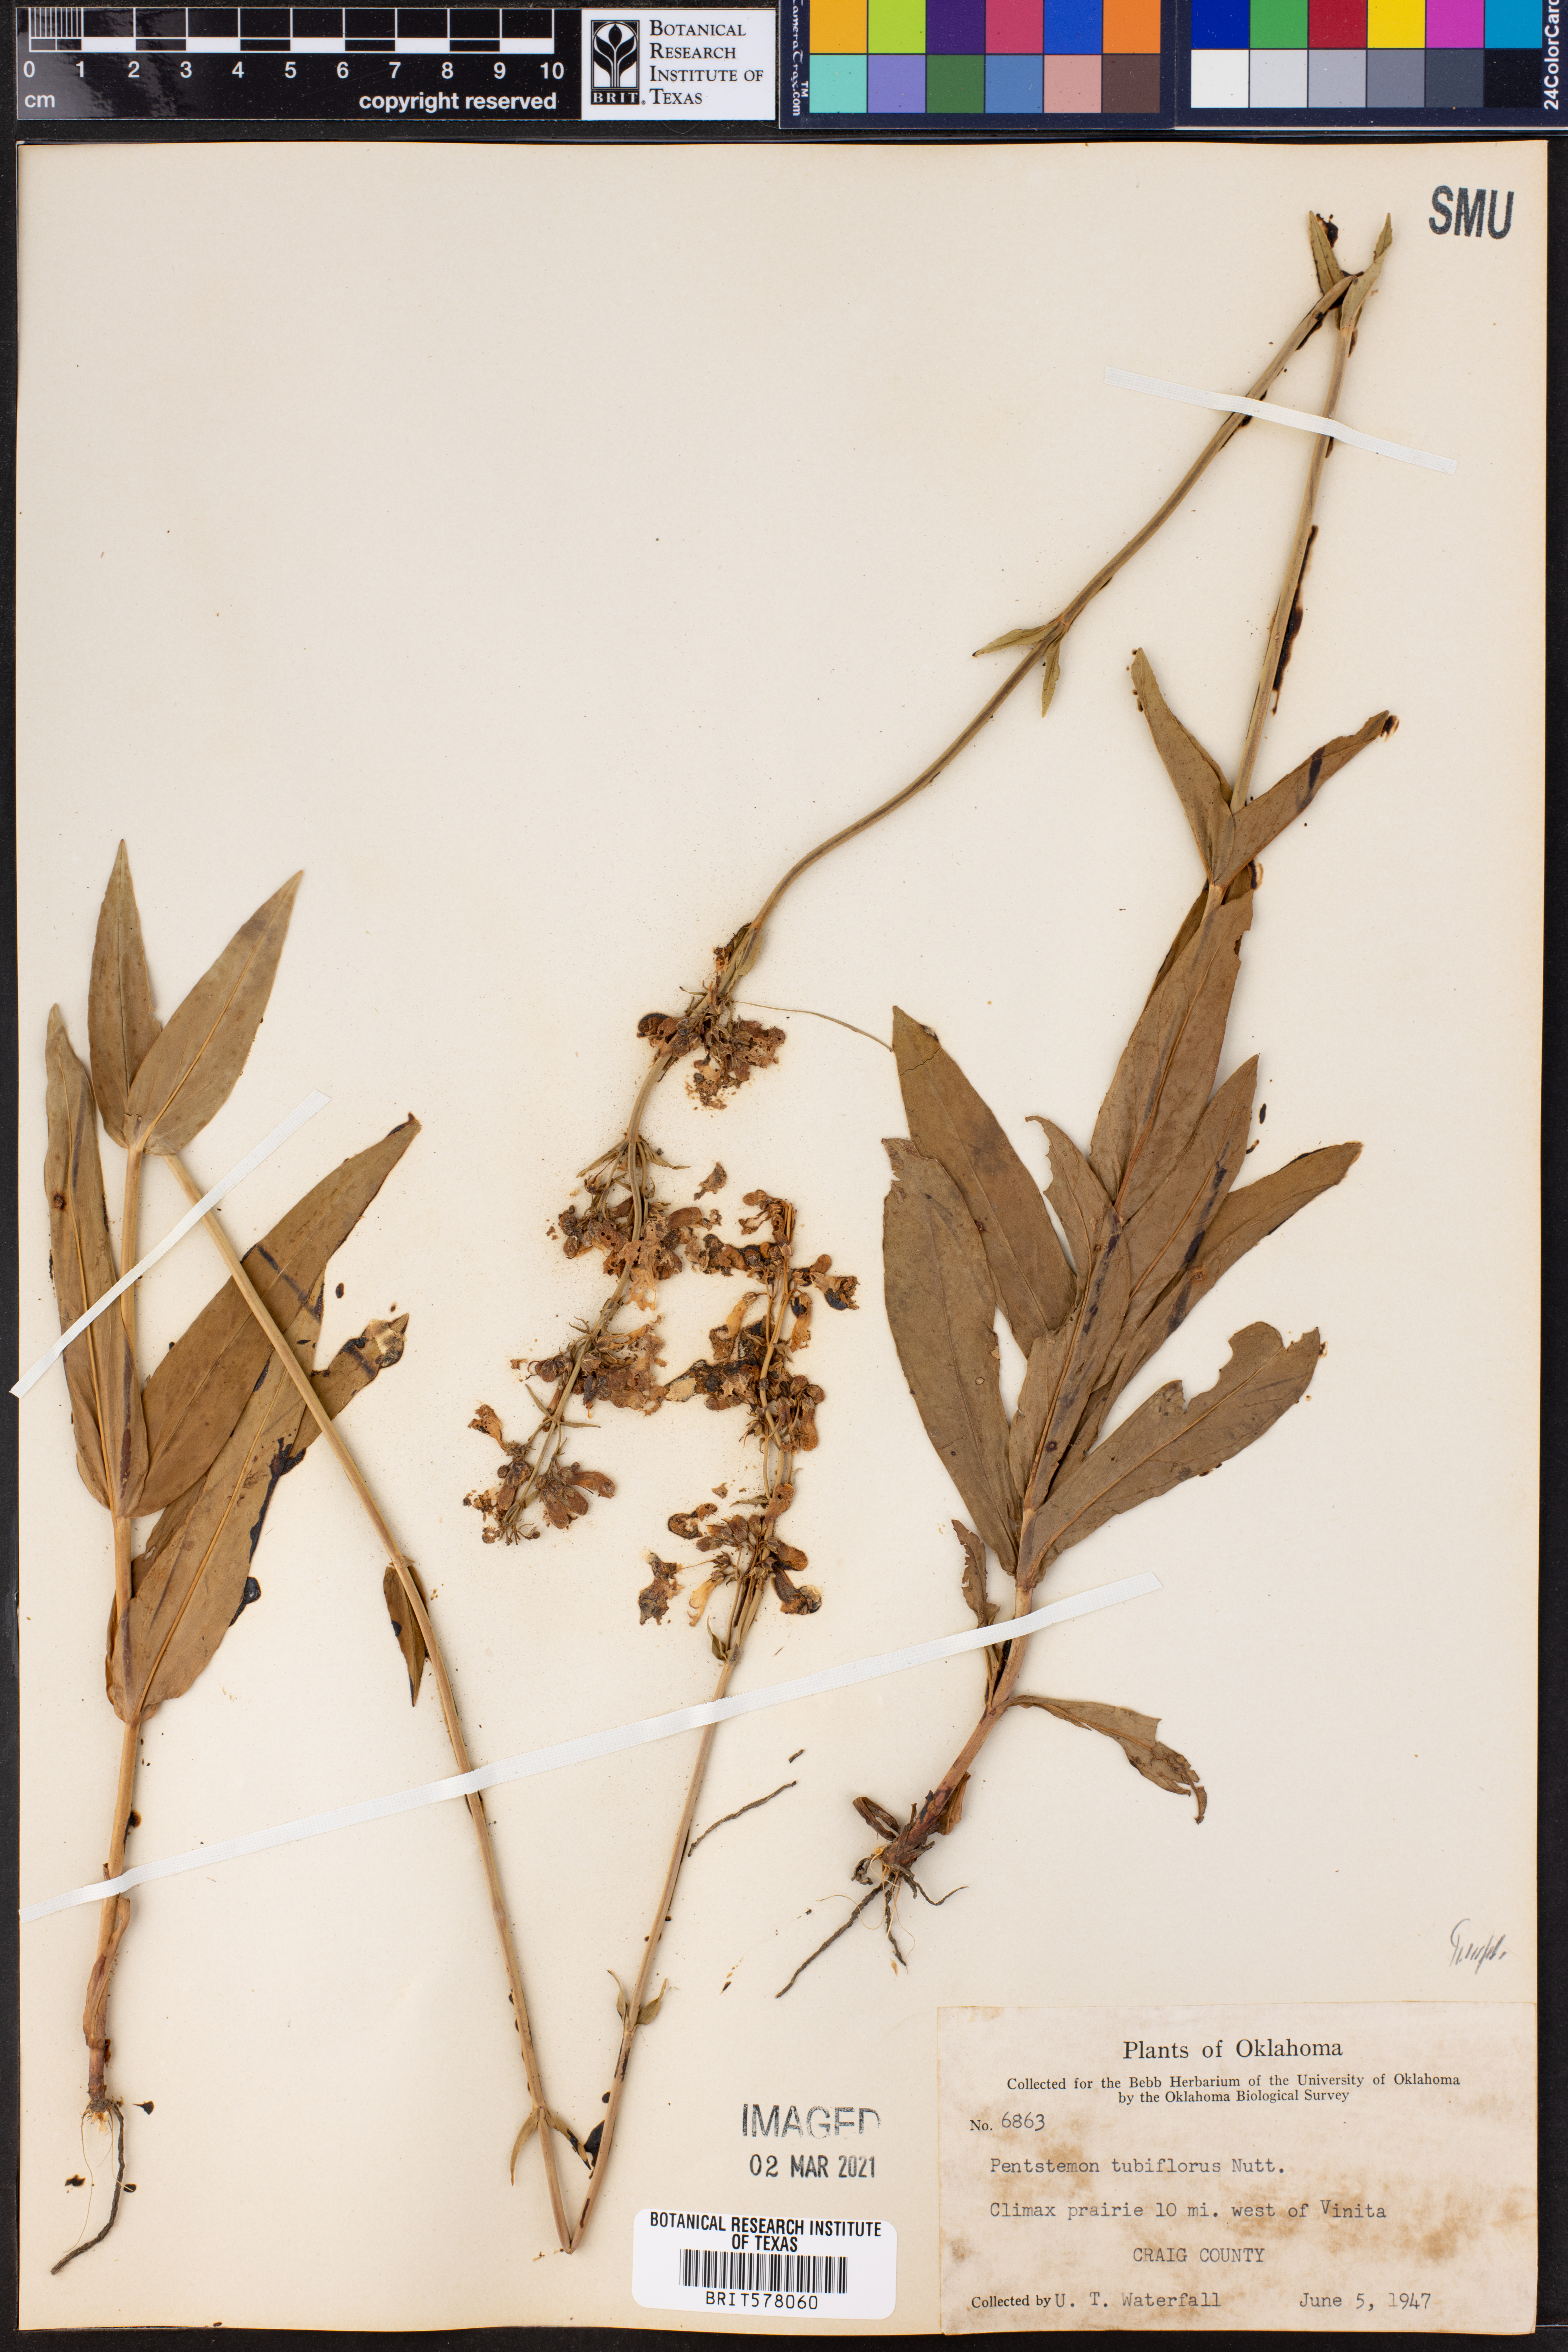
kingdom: Plantae
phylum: Tracheophyta
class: Magnoliopsida
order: Lamiales
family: Plantaginaceae
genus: Penstemon
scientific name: Penstemon tubaeflorus
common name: White wand beardtongue
